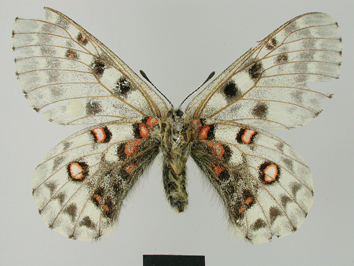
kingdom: Animalia
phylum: Arthropoda
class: Insecta
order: Lepidoptera
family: Papilionidae
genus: Parnassius
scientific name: Parnassius epaphus
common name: Common red apollo
